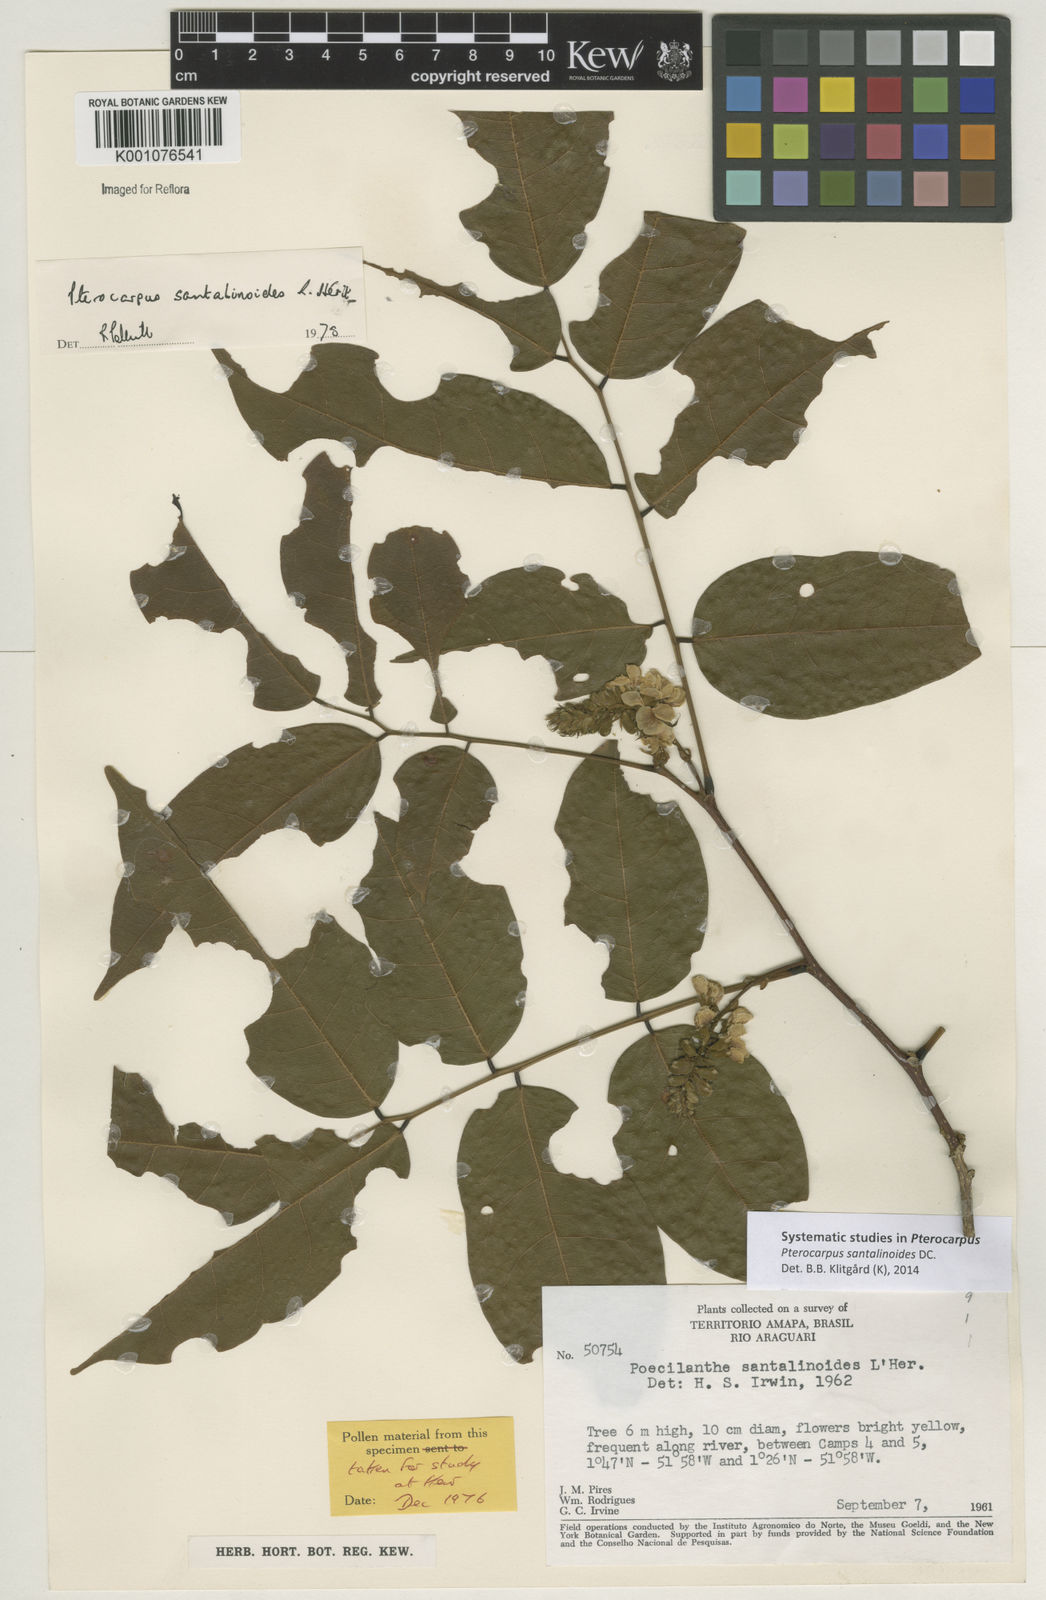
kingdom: Plantae
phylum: Tracheophyta
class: Magnoliopsida
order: Fabales
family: Fabaceae
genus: Pterocarpus
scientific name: Pterocarpus santalinoides
